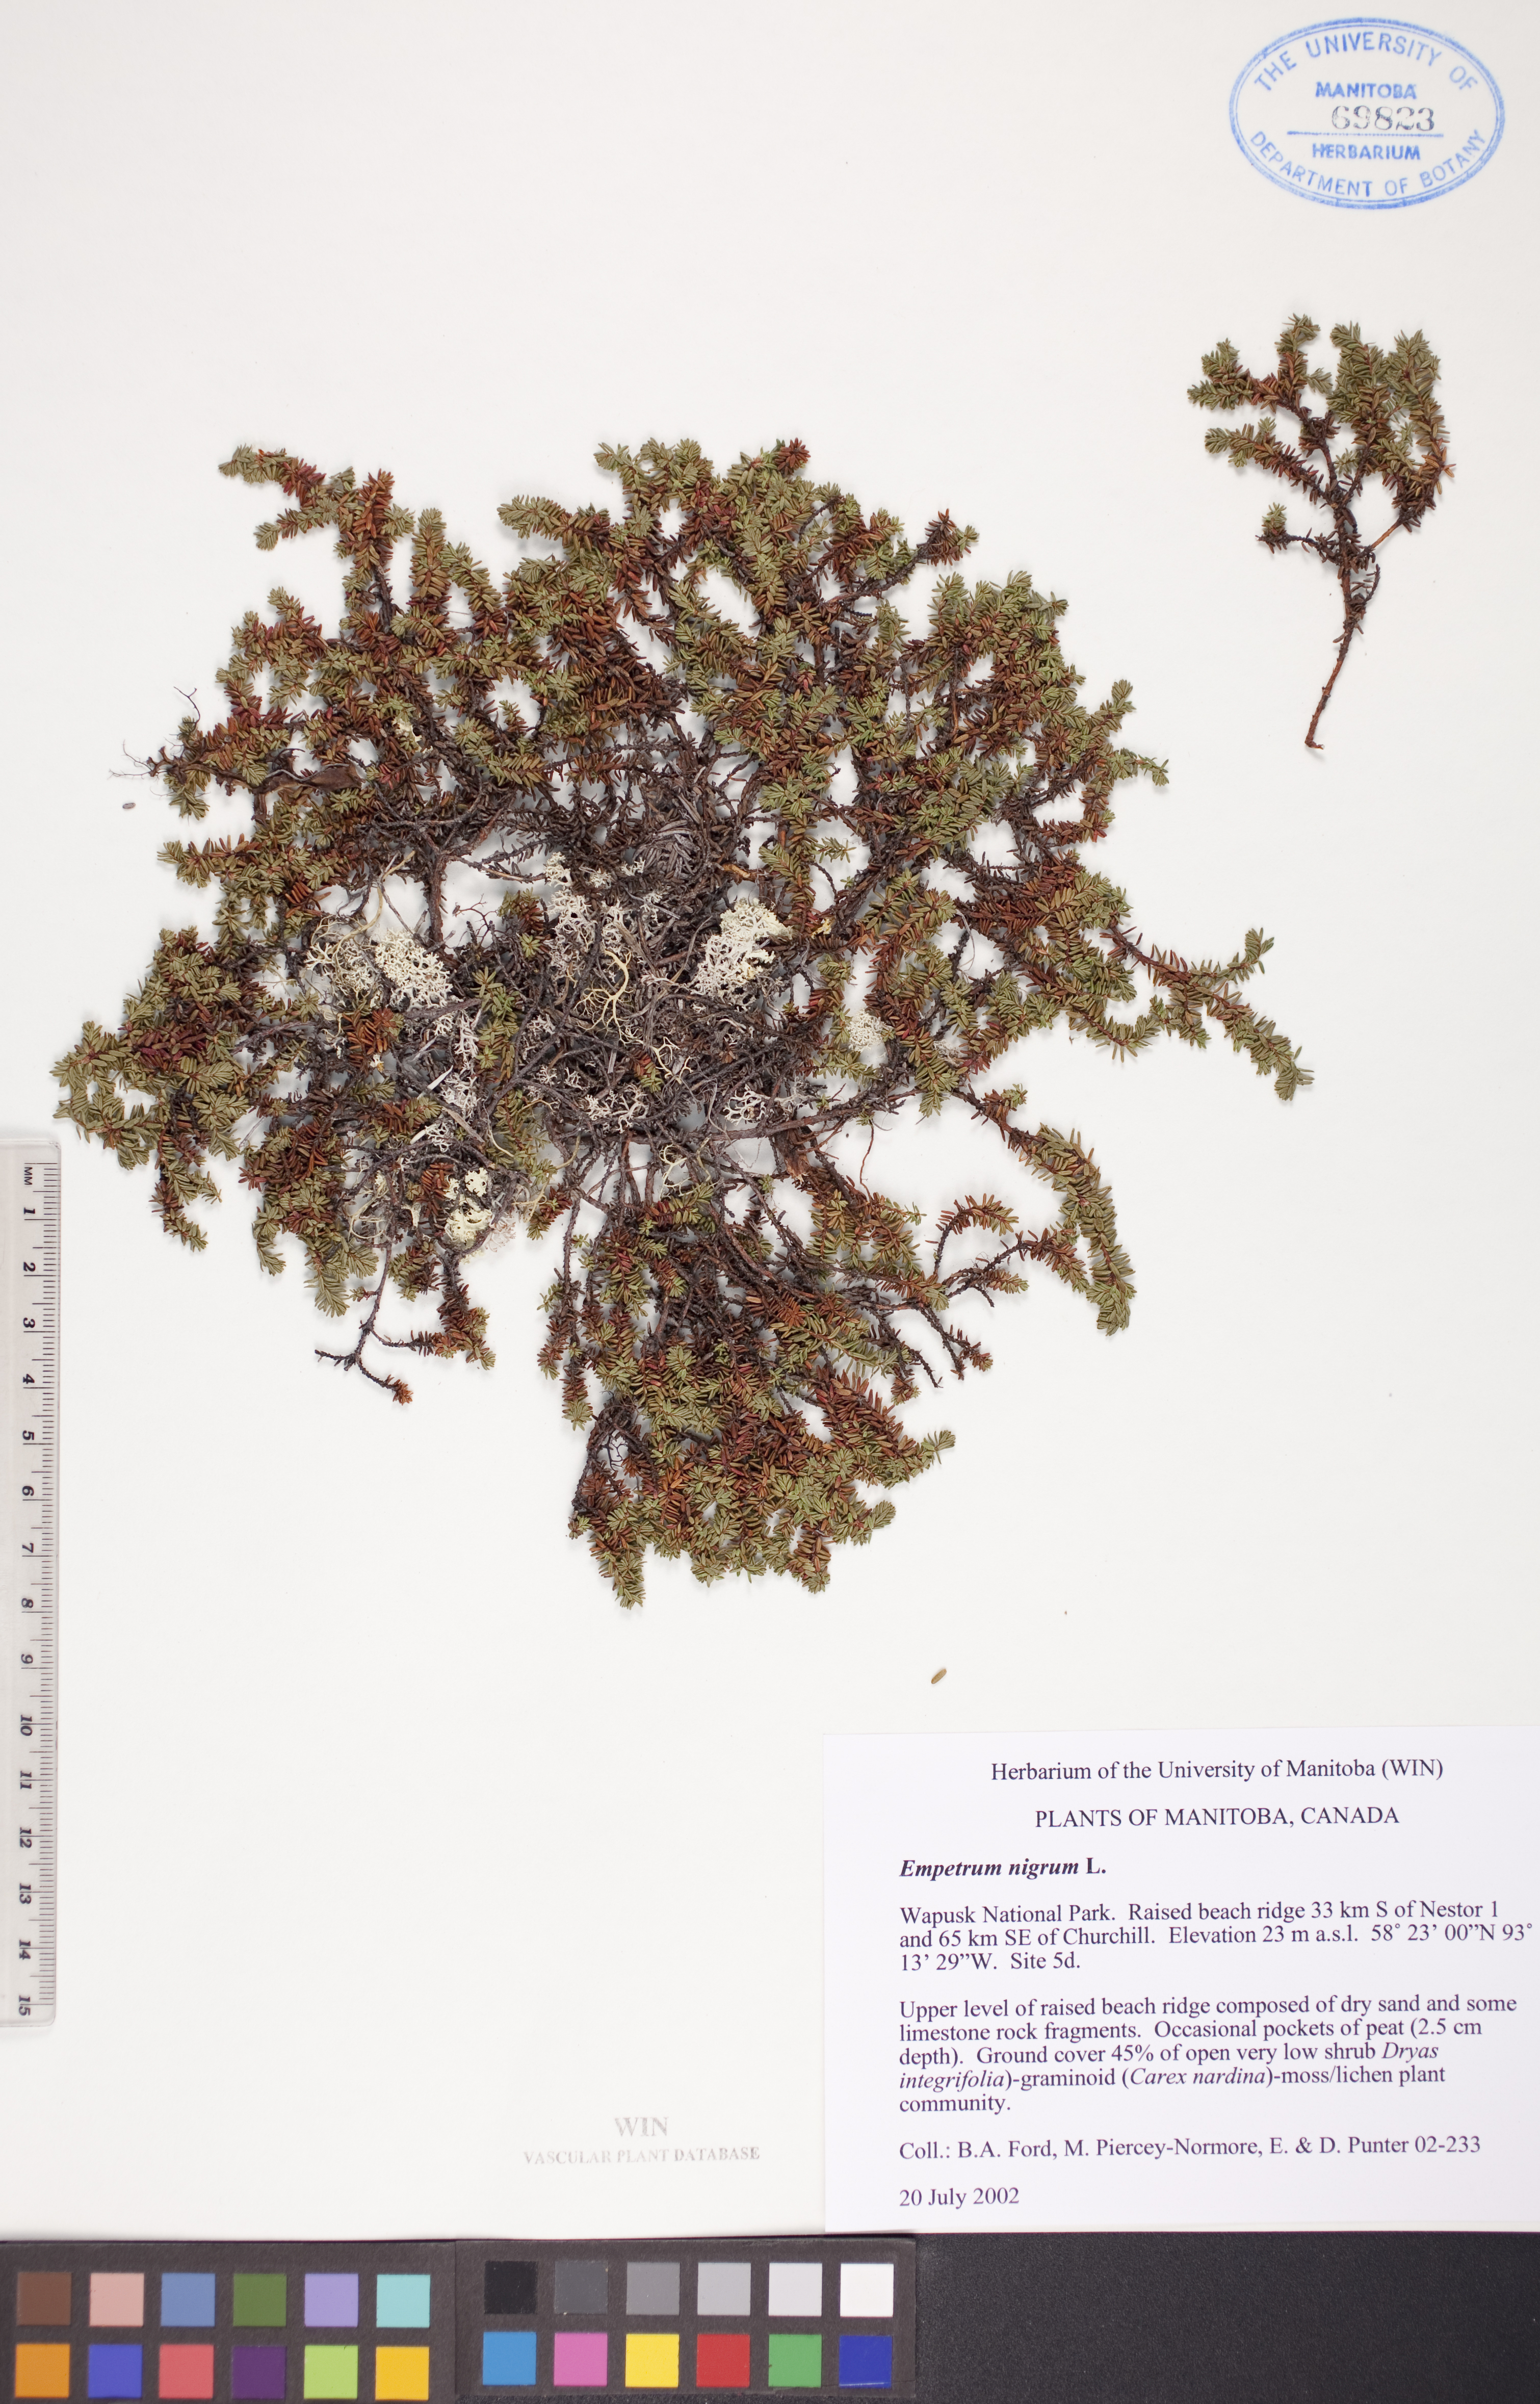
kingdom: Plantae
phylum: Tracheophyta
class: Magnoliopsida
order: Ericales
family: Ericaceae
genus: Empetrum
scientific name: Empetrum nigrum
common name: Black crowberry
